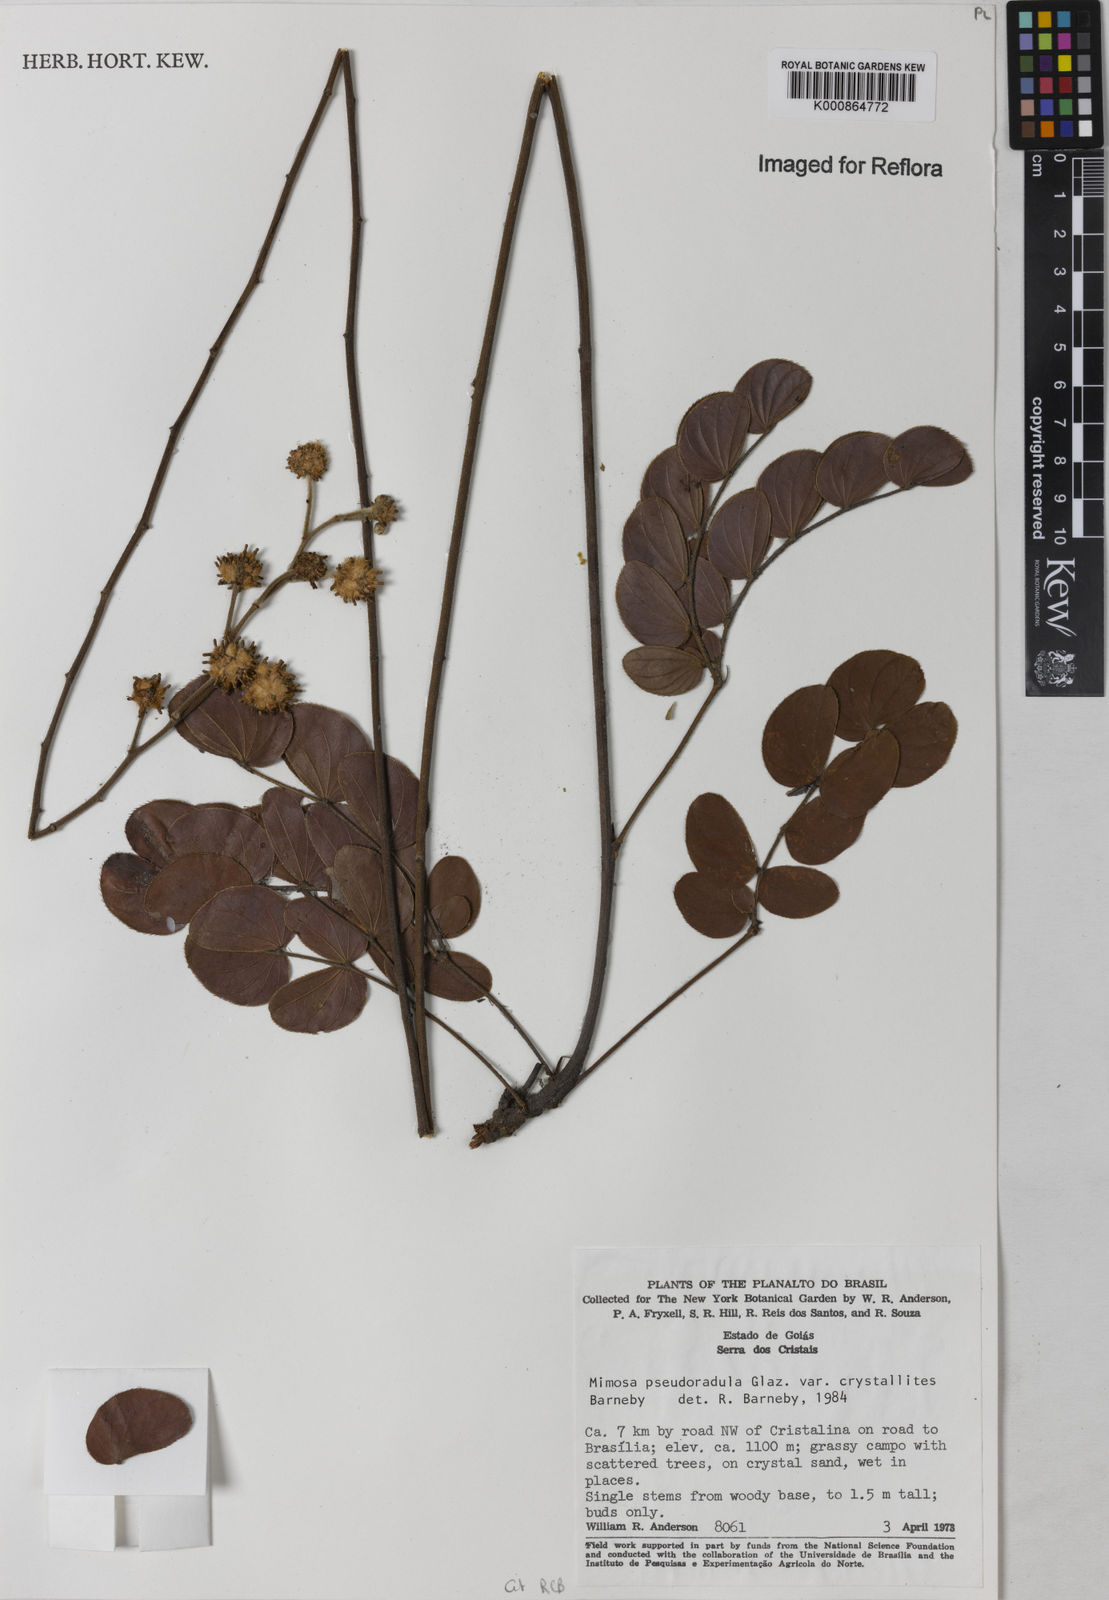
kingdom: Plantae
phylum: Tracheophyta
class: Magnoliopsida
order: Fabales
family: Fabaceae
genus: Mimosa
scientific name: Mimosa pseudoradula
